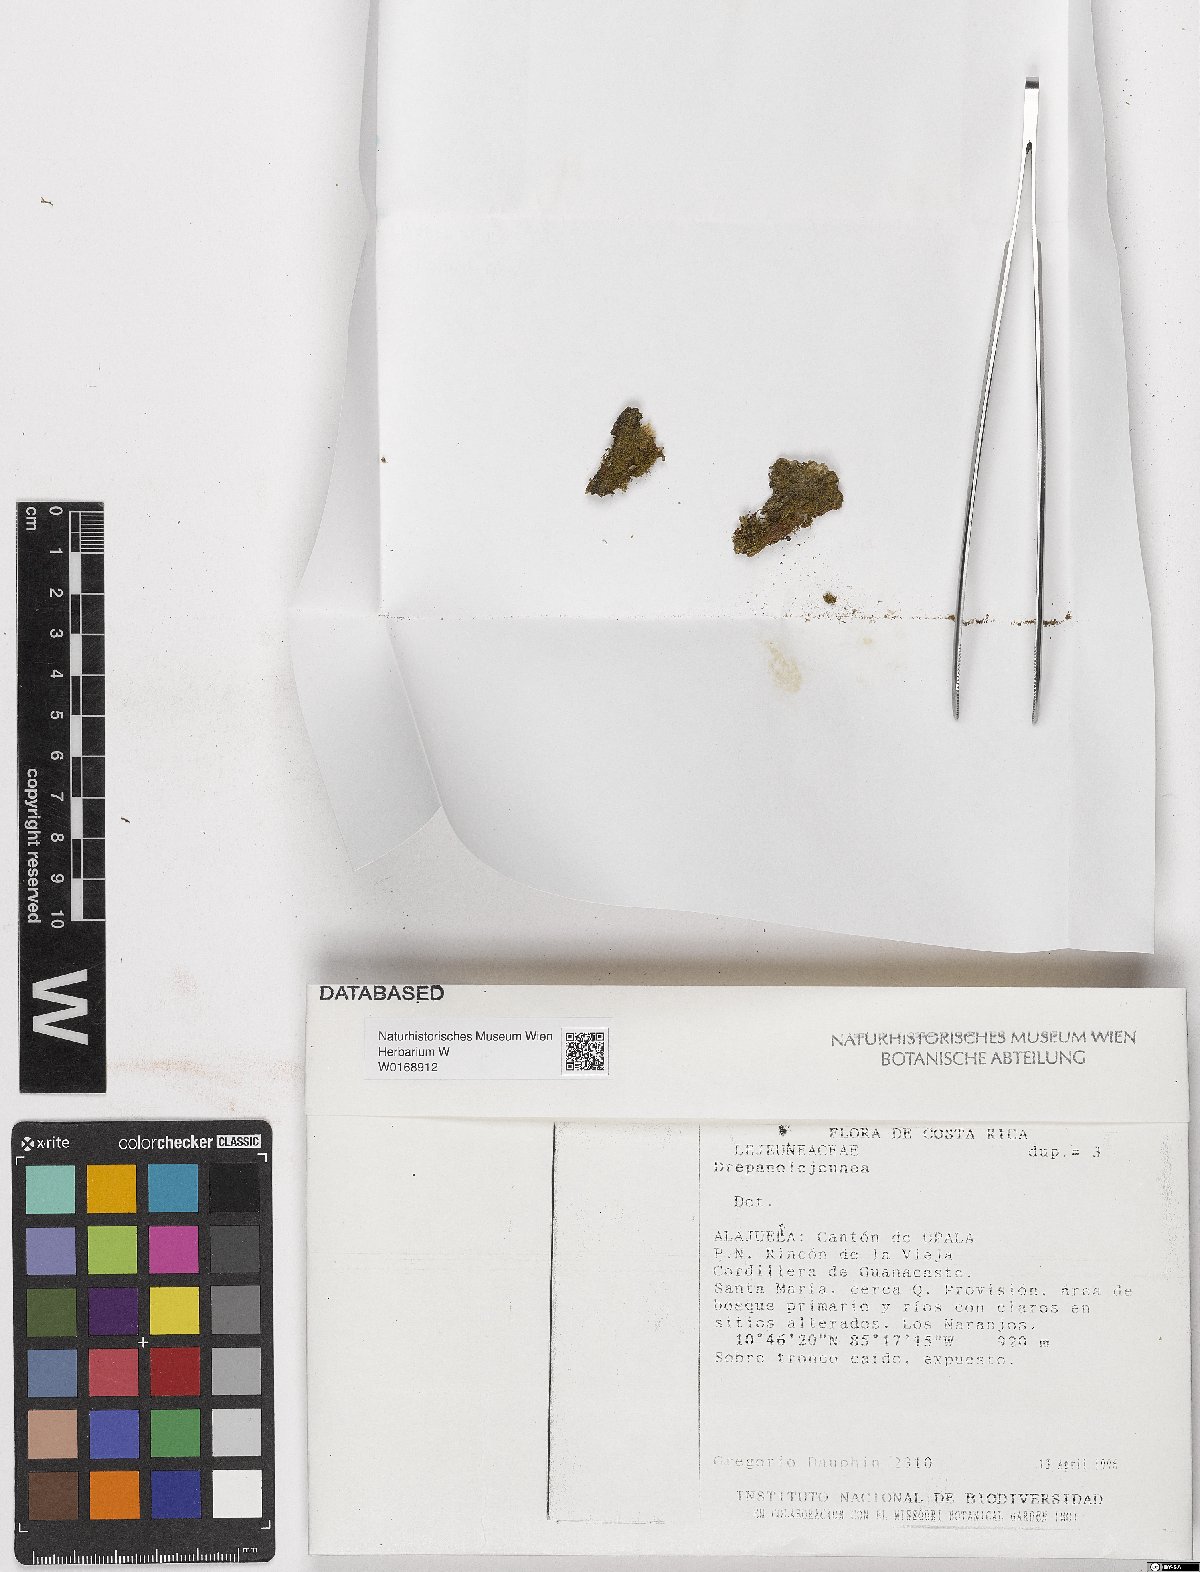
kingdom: Plantae
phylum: Marchantiophyta
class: Jungermanniopsida
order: Porellales
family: Lejeuneaceae
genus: Drepanolejeunea
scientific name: Drepanolejeunea
